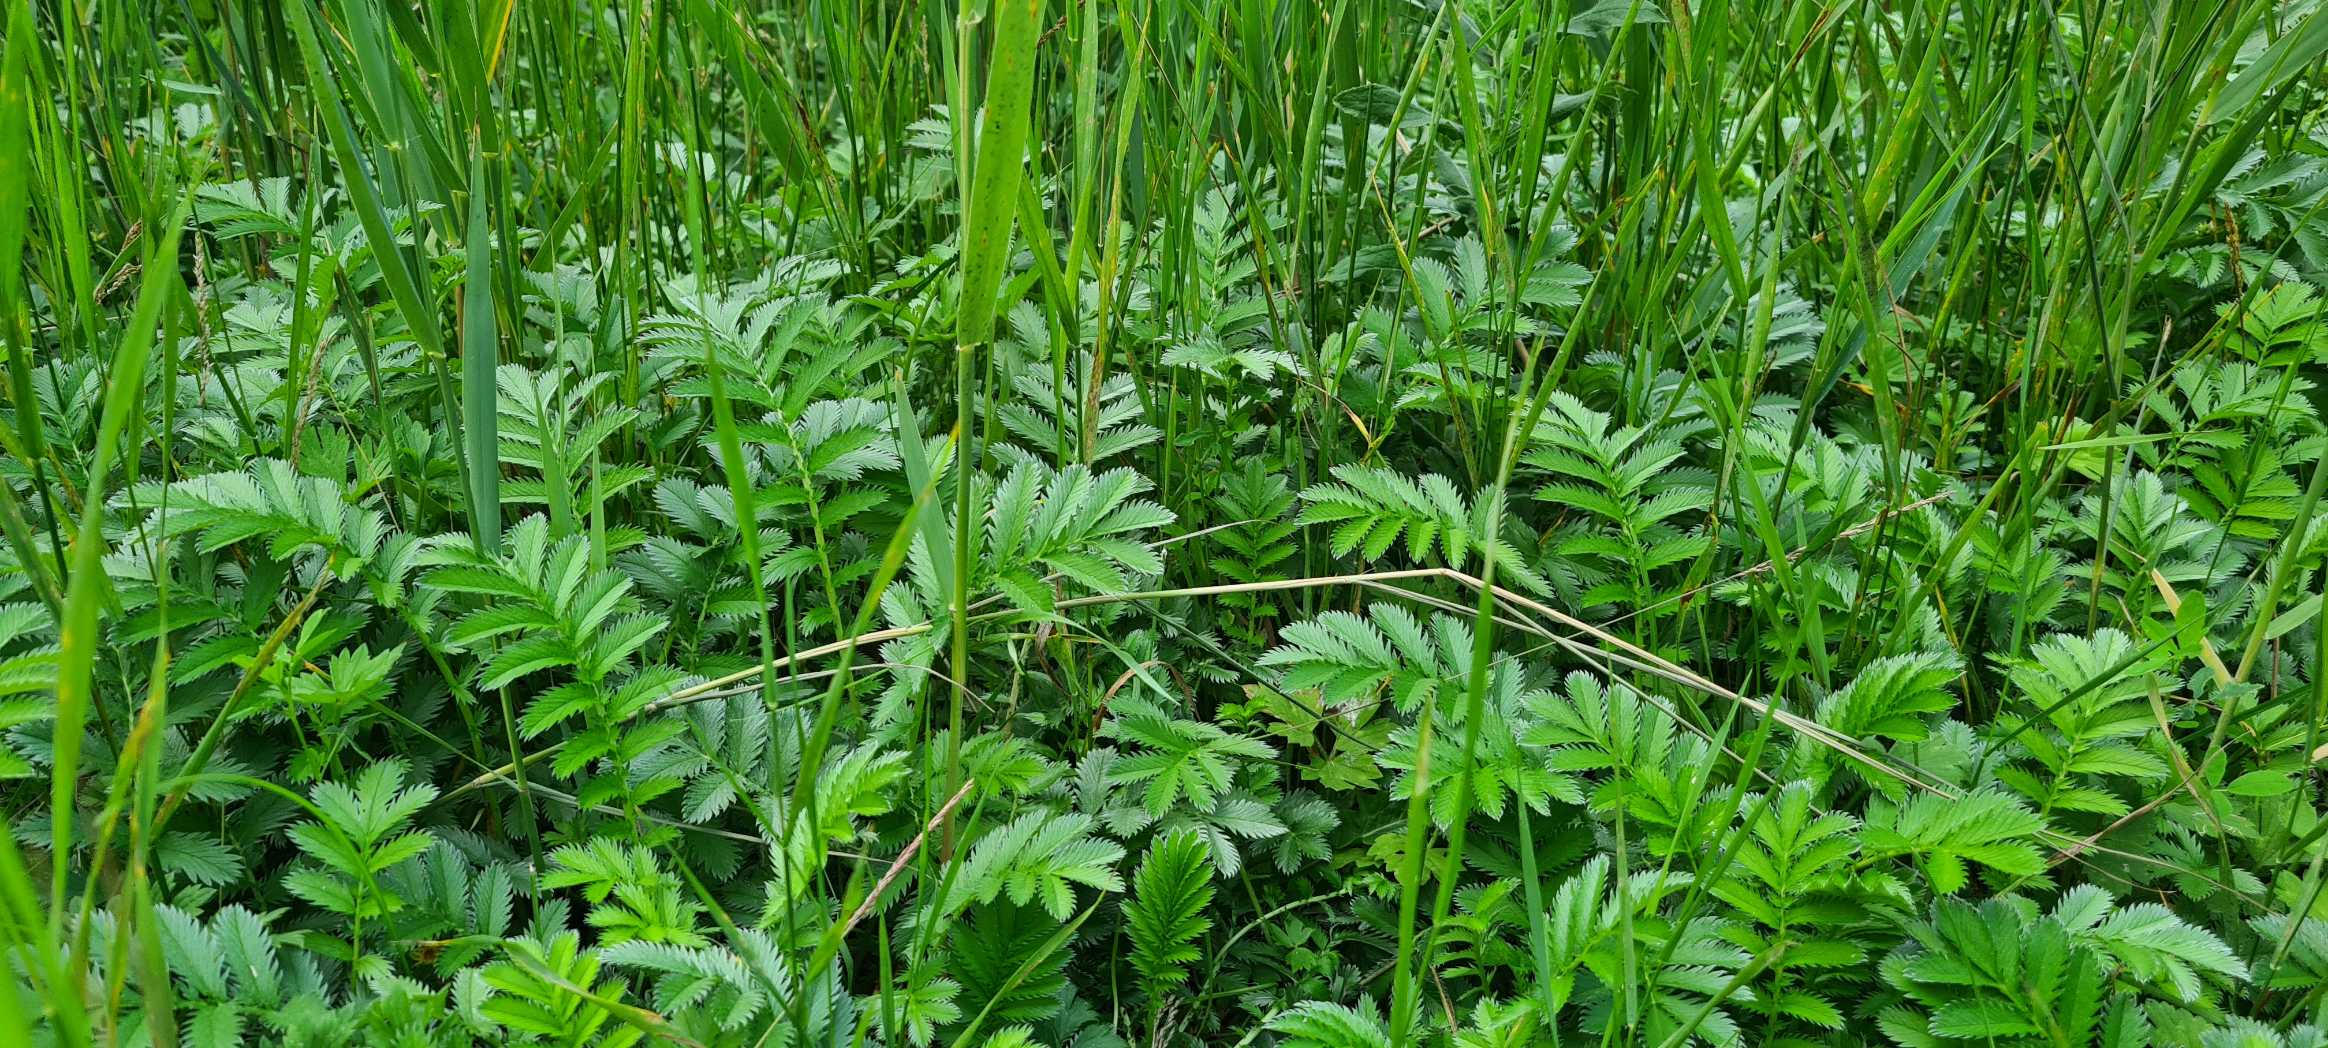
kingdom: Plantae
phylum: Tracheophyta
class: Magnoliopsida
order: Rosales
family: Rosaceae
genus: Argentina
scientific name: Argentina anserina
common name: Gåsepotentil
